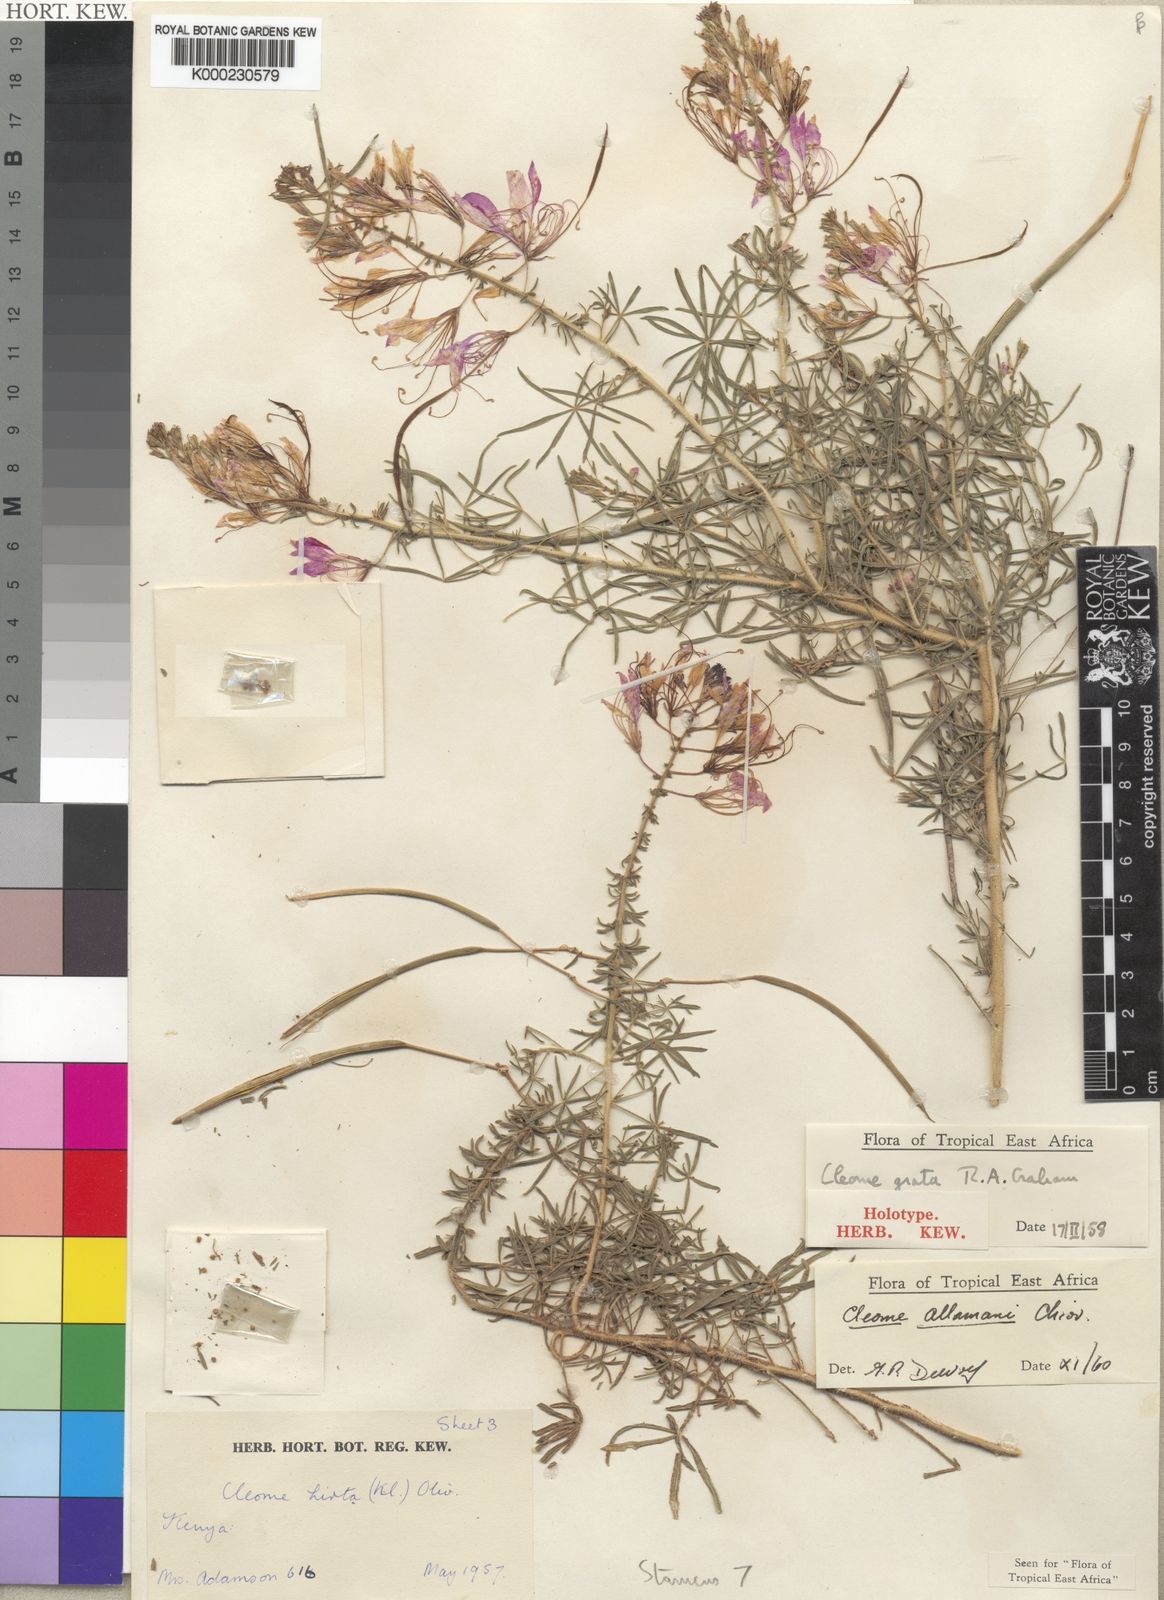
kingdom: Plantae
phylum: Tracheophyta
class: Magnoliopsida
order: Brassicales
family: Cleomaceae
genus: Sieruela
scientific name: Sieruela allamani
